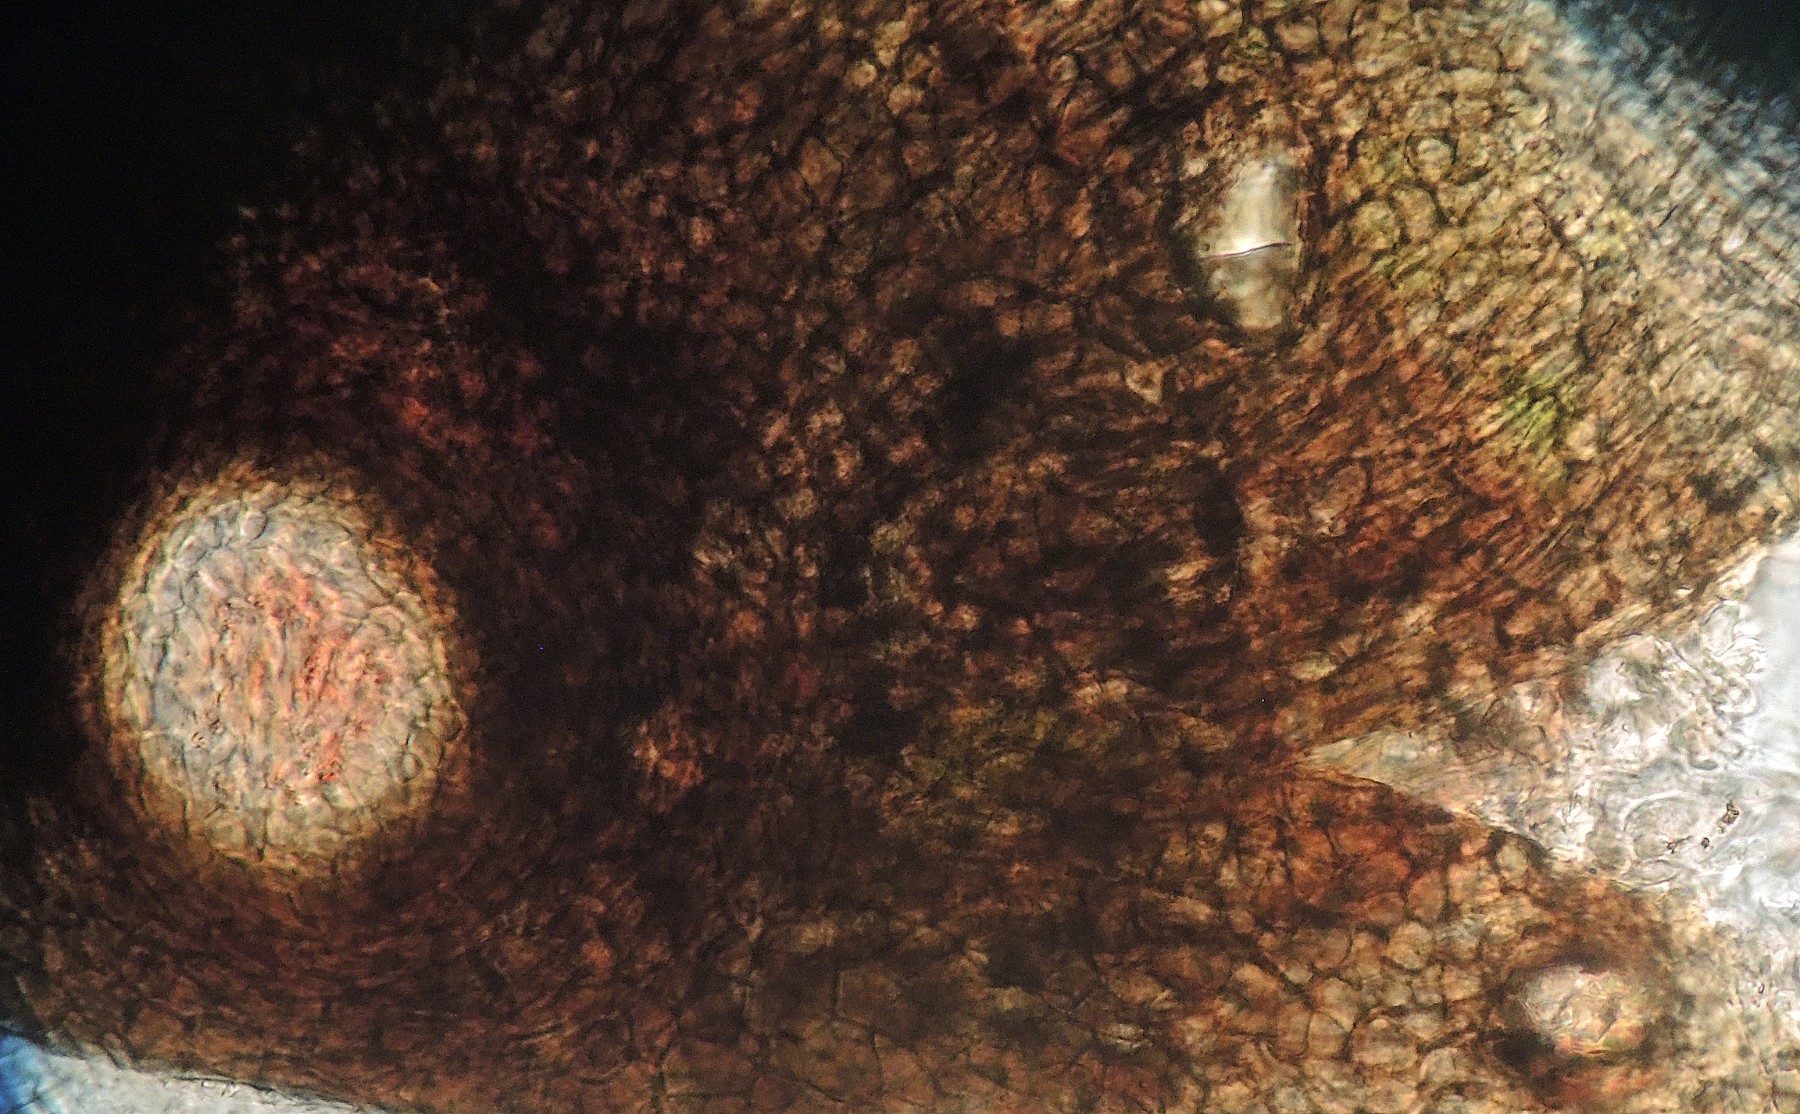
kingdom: Fungi
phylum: Ascomycota
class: Dothideomycetes
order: Pleosporales
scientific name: Pleosporales
